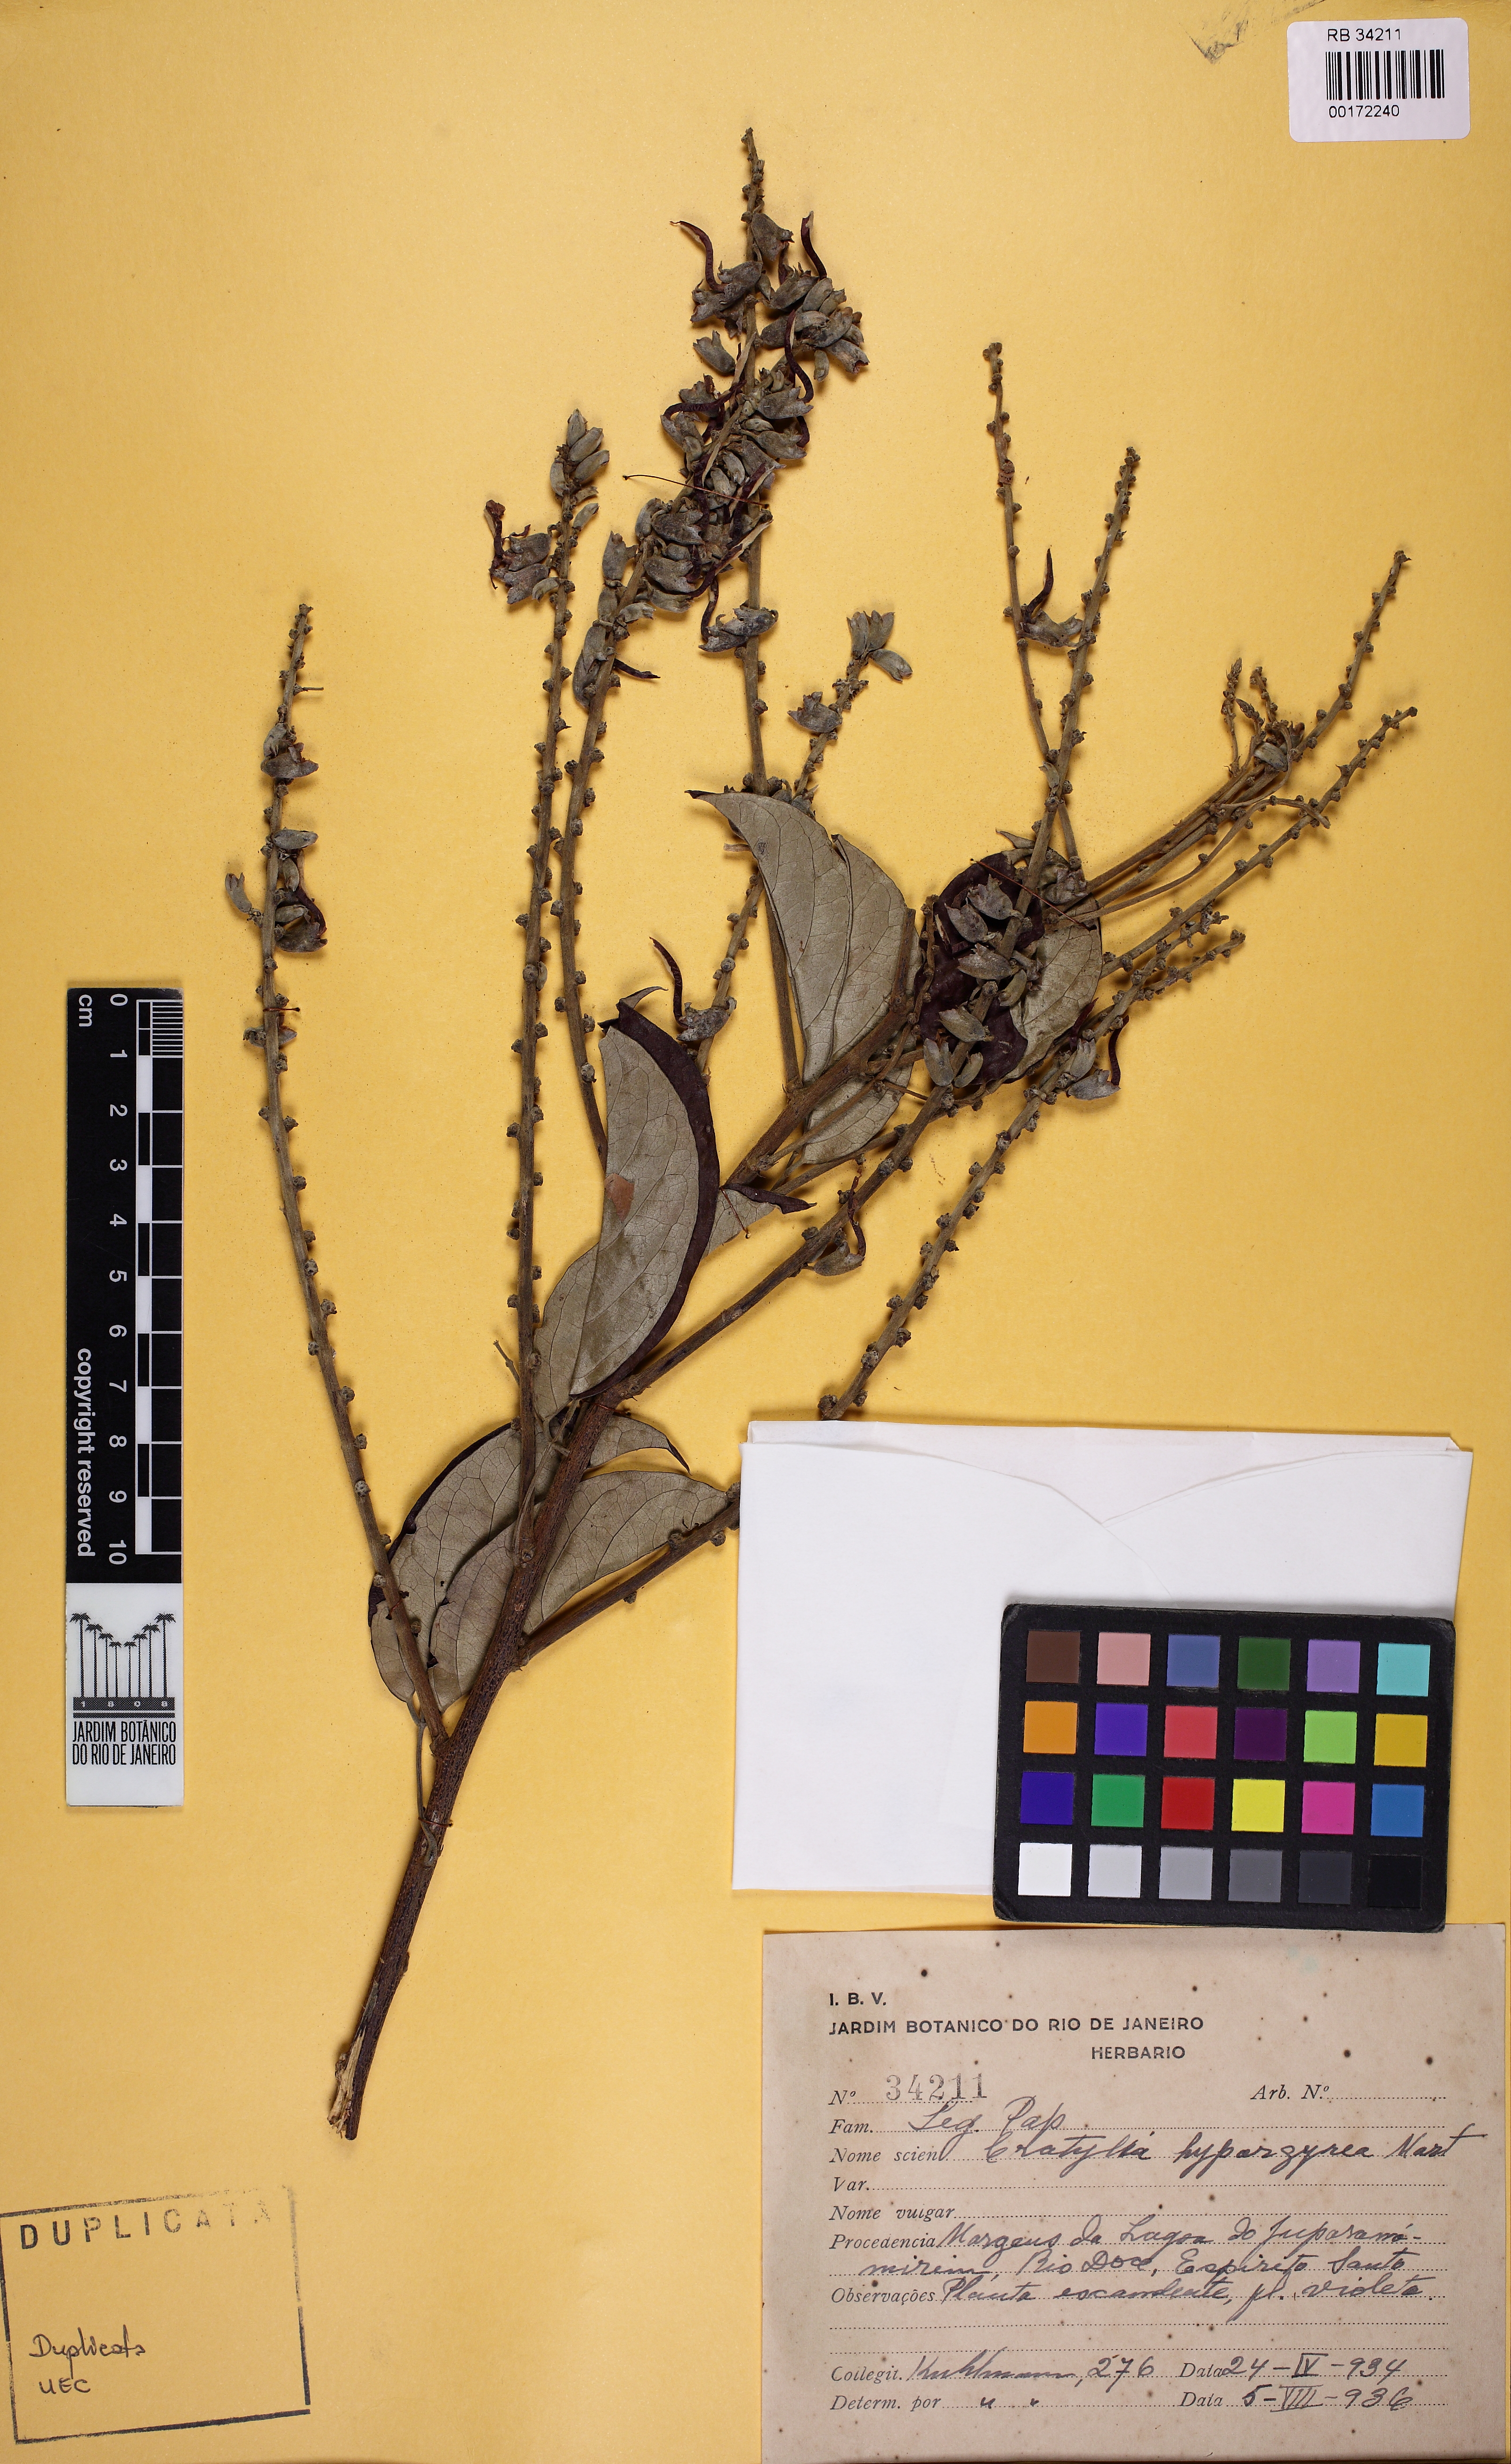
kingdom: Plantae
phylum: Tracheophyta
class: Magnoliopsida
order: Fabales
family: Fabaceae
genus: Cratylia
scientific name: Cratylia hypargyrea
